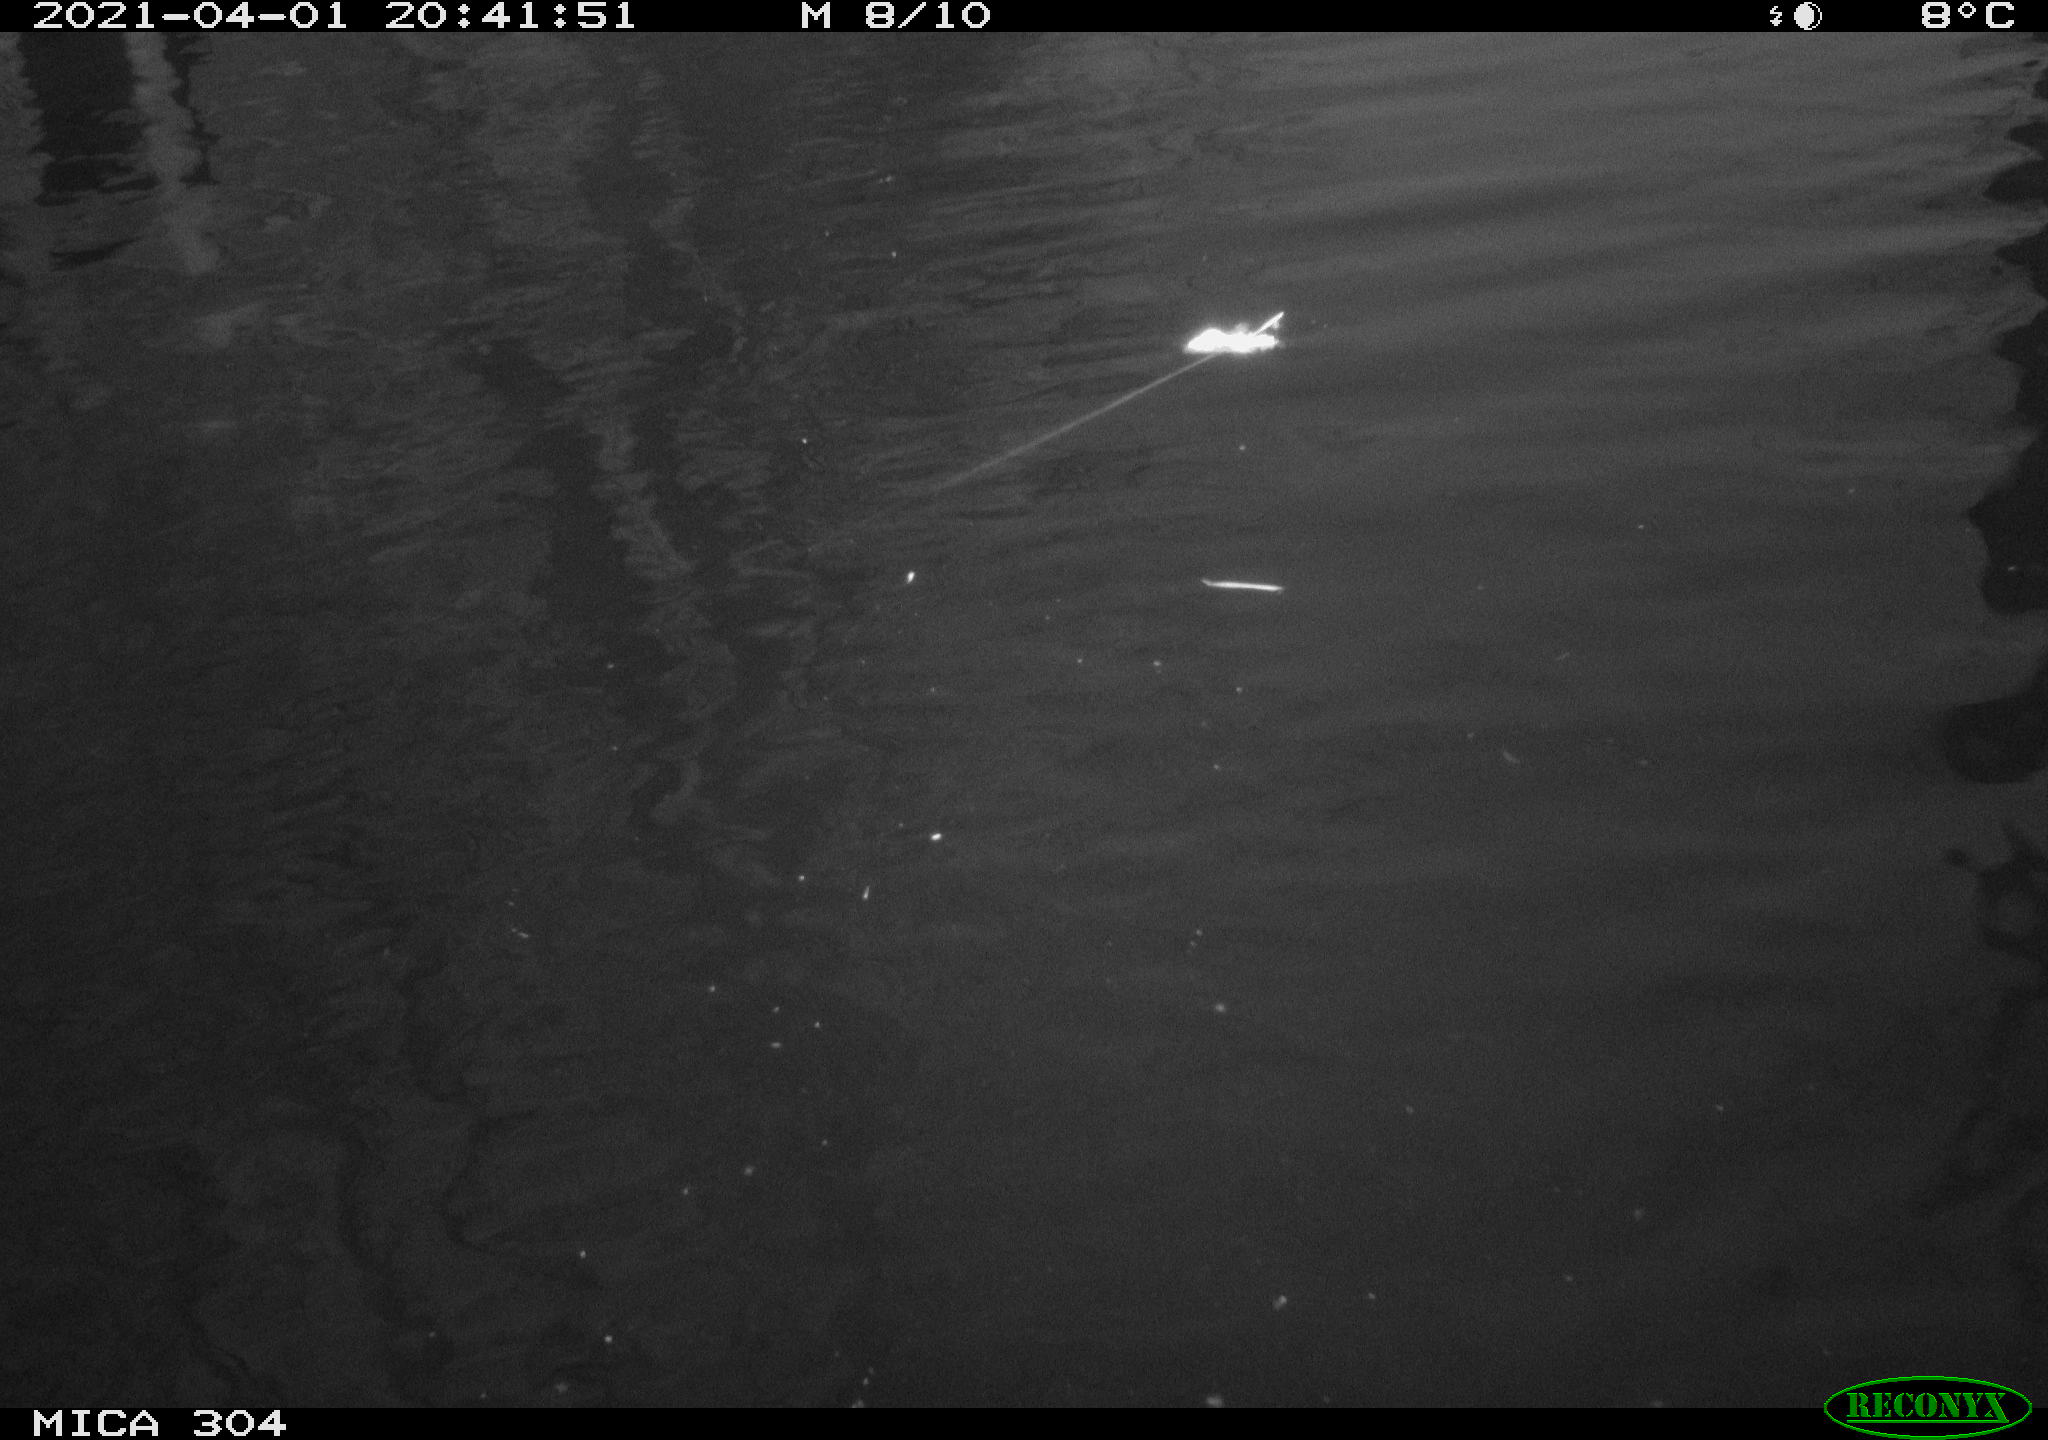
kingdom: Animalia
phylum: Chordata
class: Aves
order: Anseriformes
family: Anatidae
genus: Anas
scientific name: Anas platyrhynchos
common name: Mallard
